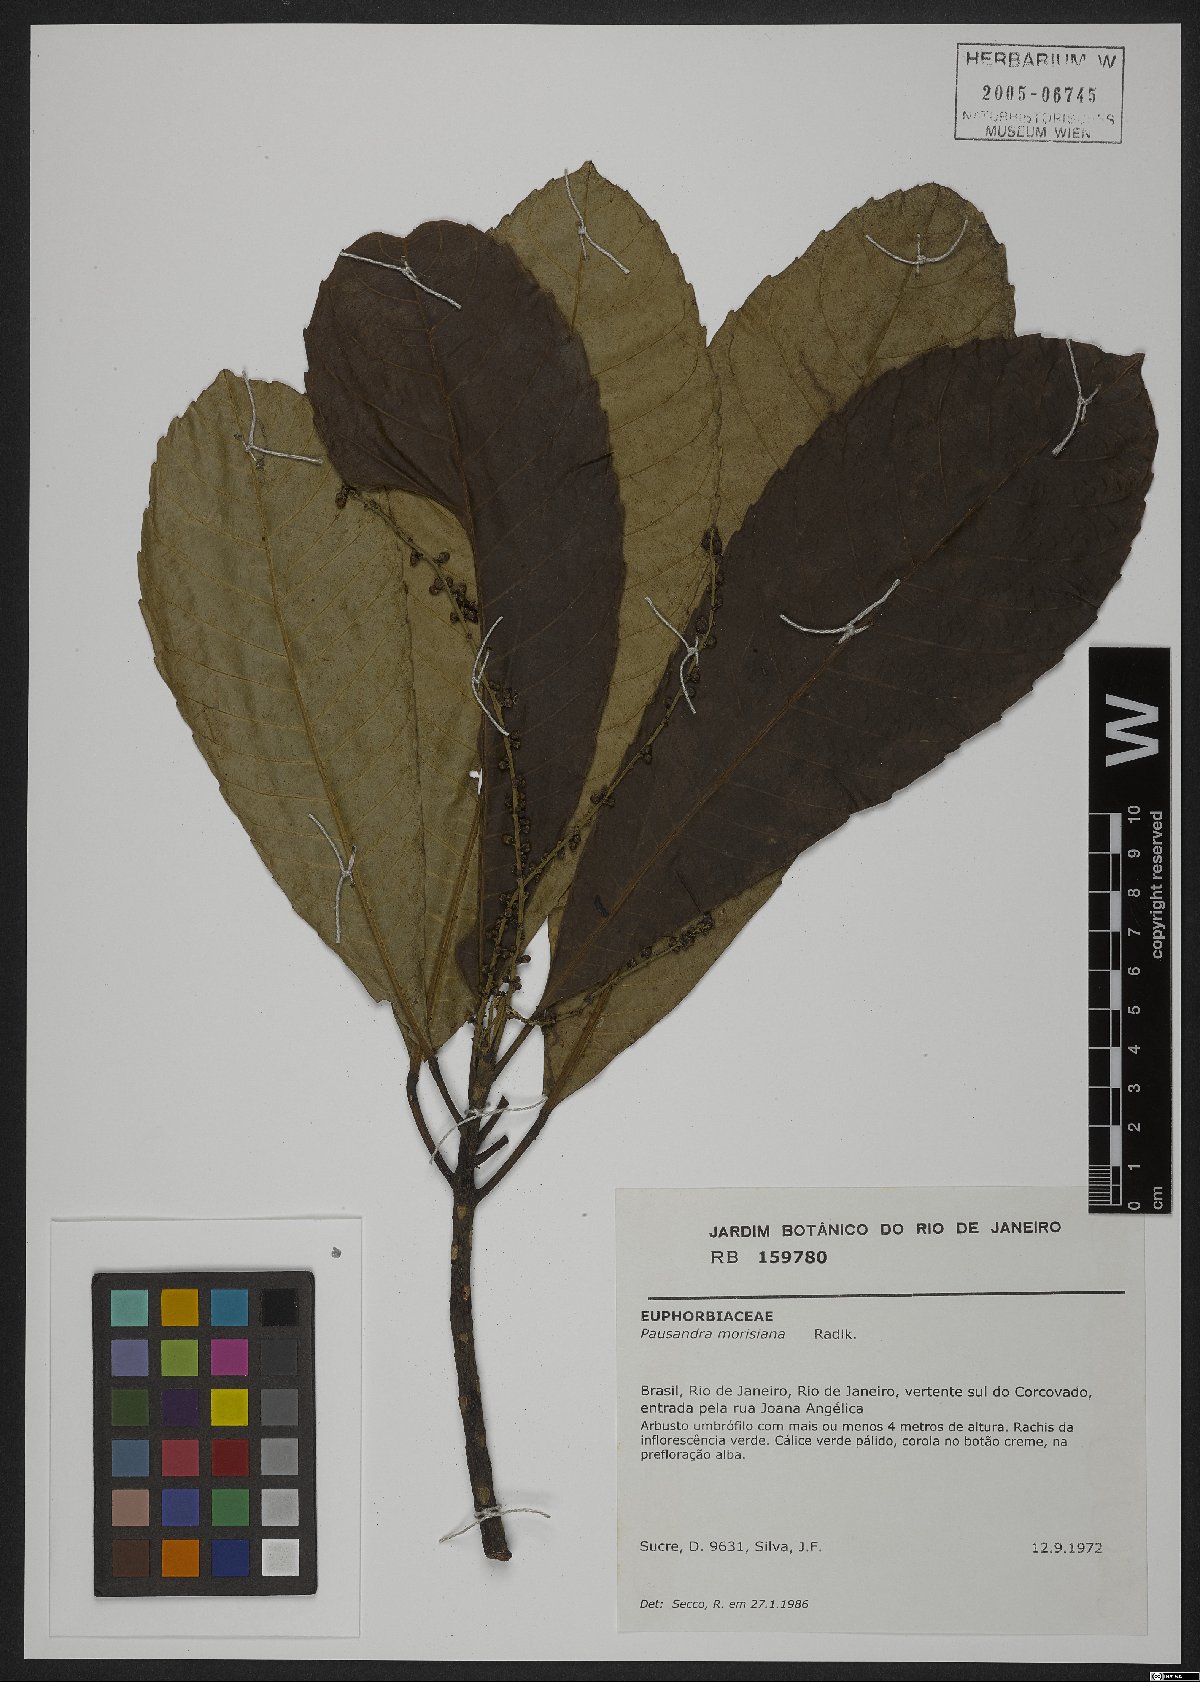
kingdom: Plantae
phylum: Tracheophyta
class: Magnoliopsida
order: Malpighiales
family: Euphorbiaceae
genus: Pausandra
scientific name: Pausandra morisiana
